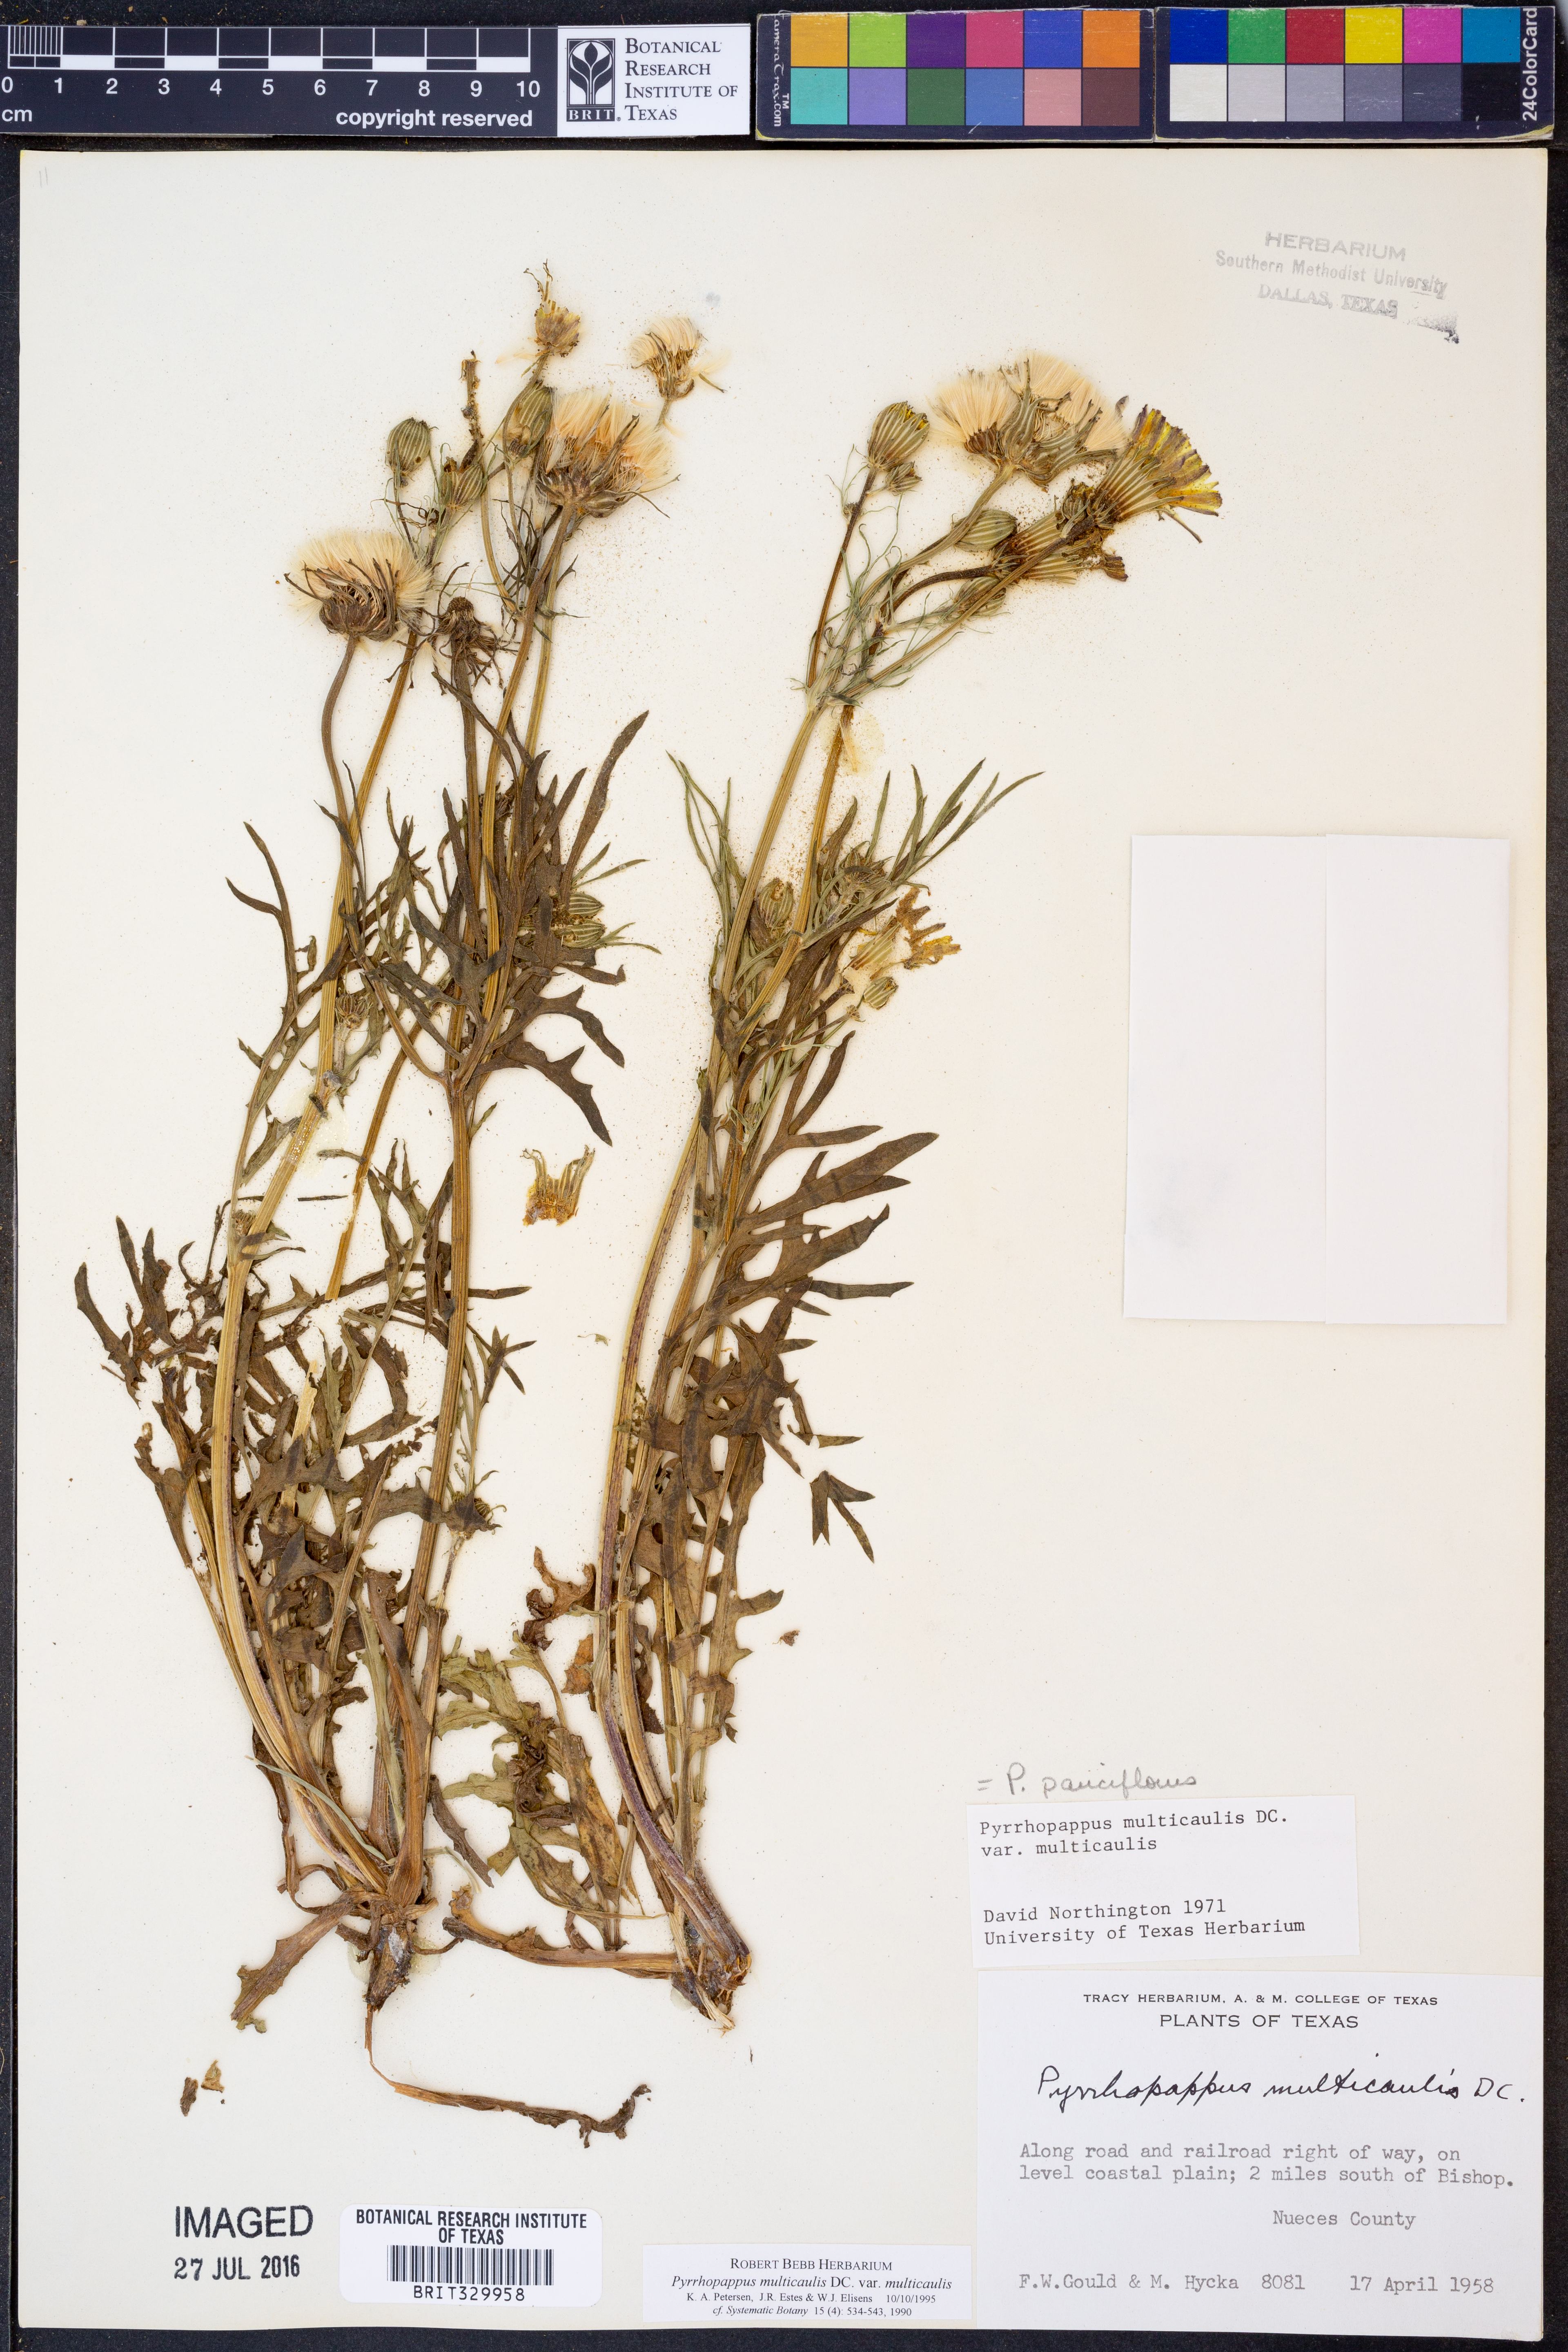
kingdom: Plantae
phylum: Tracheophyta
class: Magnoliopsida
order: Asterales
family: Asteraceae
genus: Pyrrhopappus
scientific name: Pyrrhopappus pauciflorus
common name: Texas false dandelion
